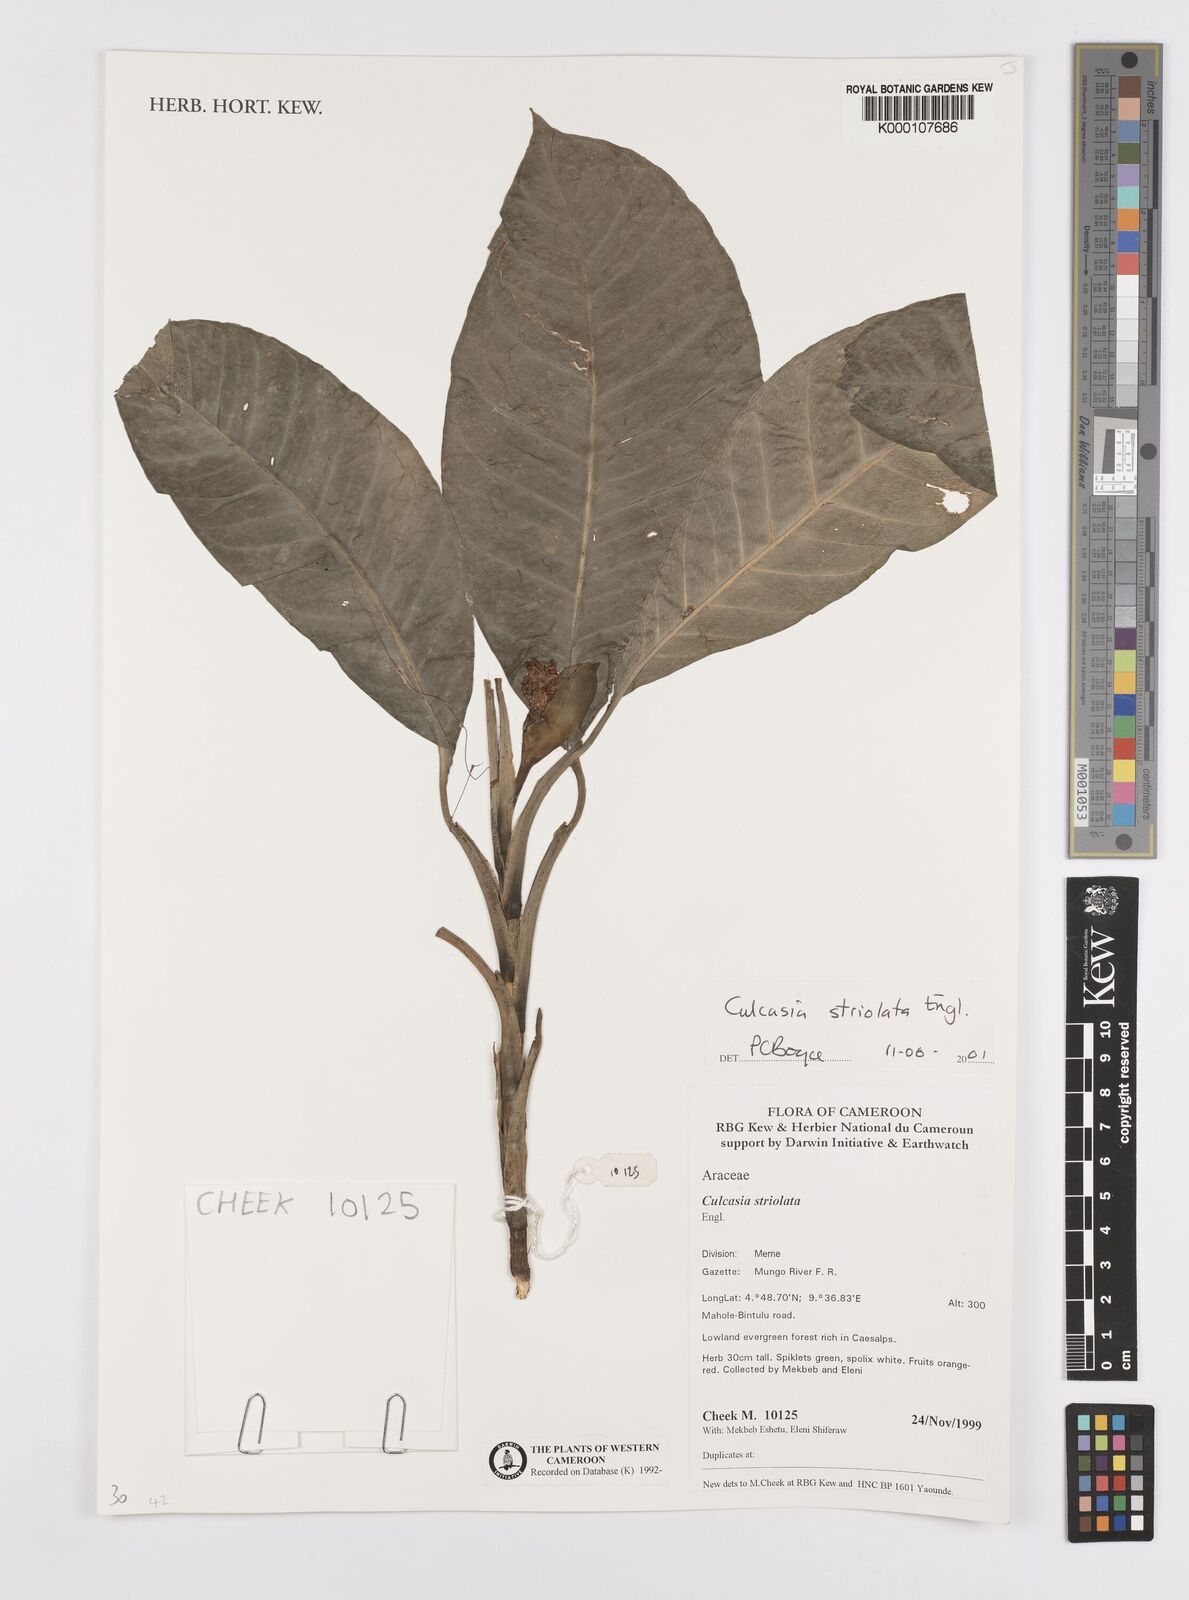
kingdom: Plantae
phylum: Tracheophyta
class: Liliopsida
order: Alismatales
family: Araceae
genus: Culcasia
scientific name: Culcasia striolata
